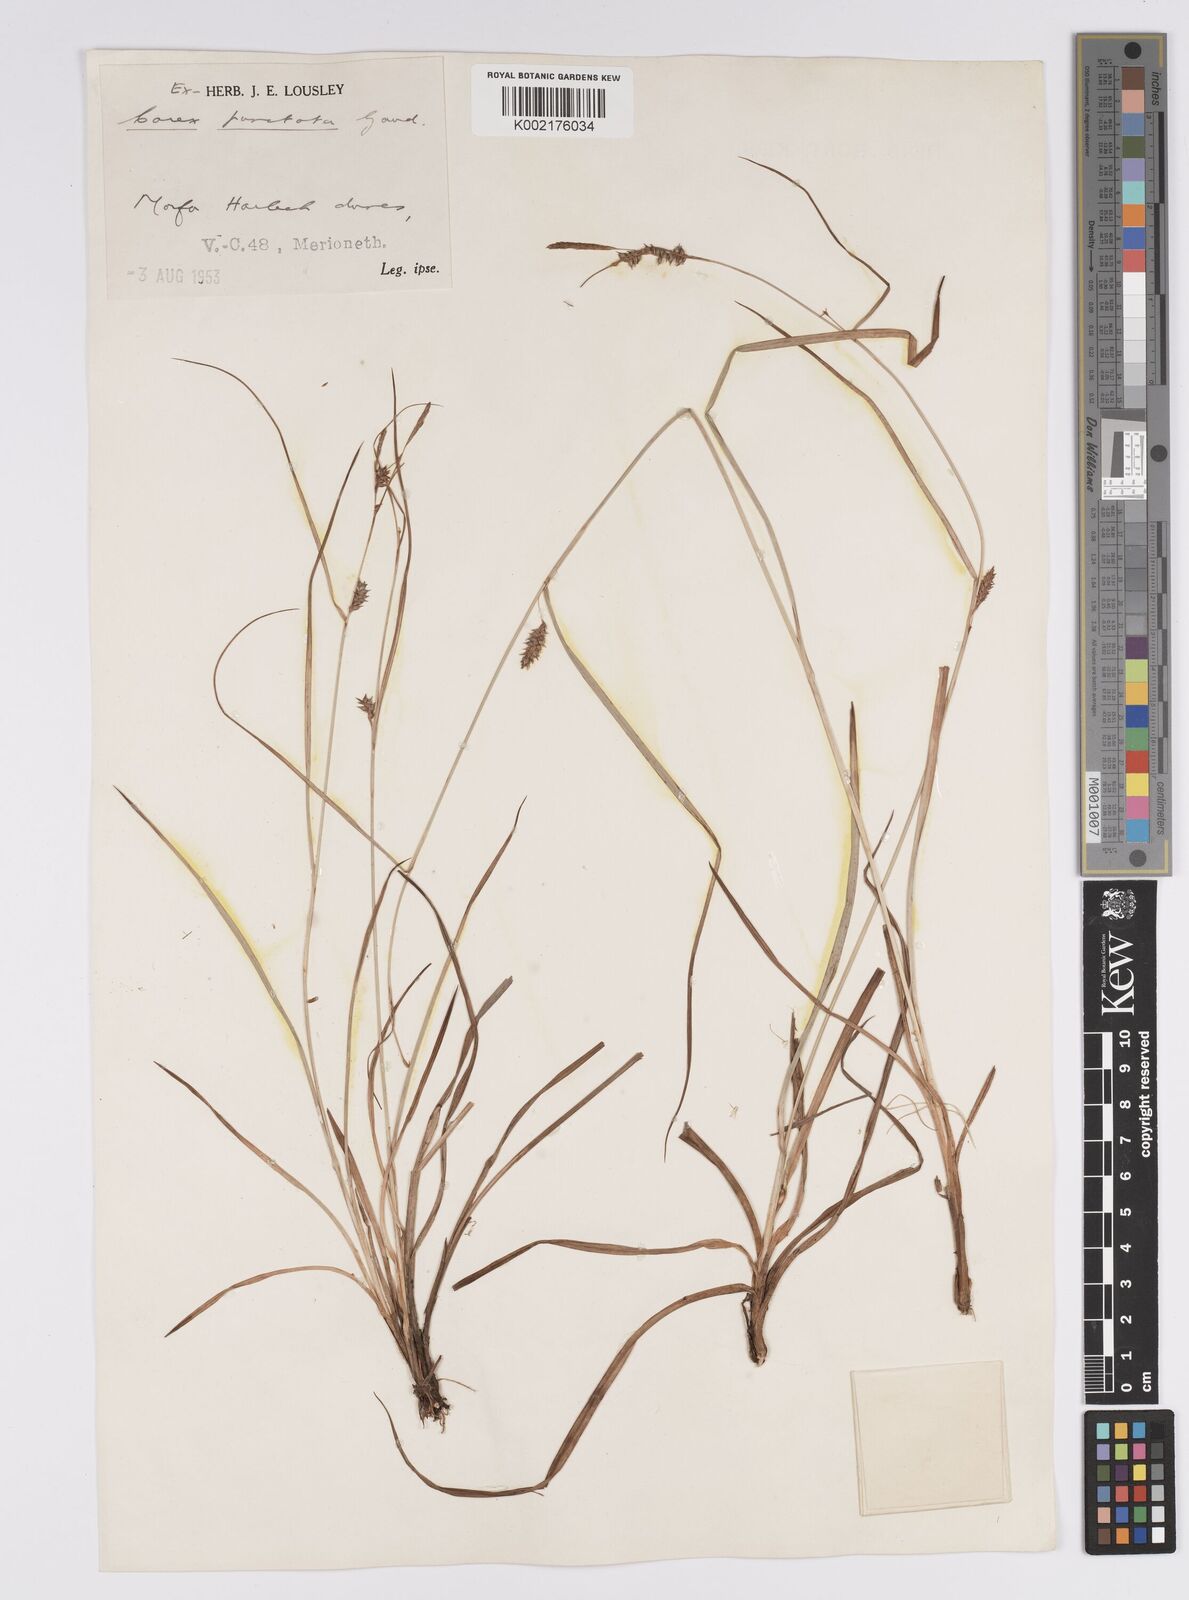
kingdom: Plantae
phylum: Tracheophyta
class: Liliopsida
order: Poales
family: Cyperaceae
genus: Carex
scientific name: Carex punctata
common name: Dotted sedge
